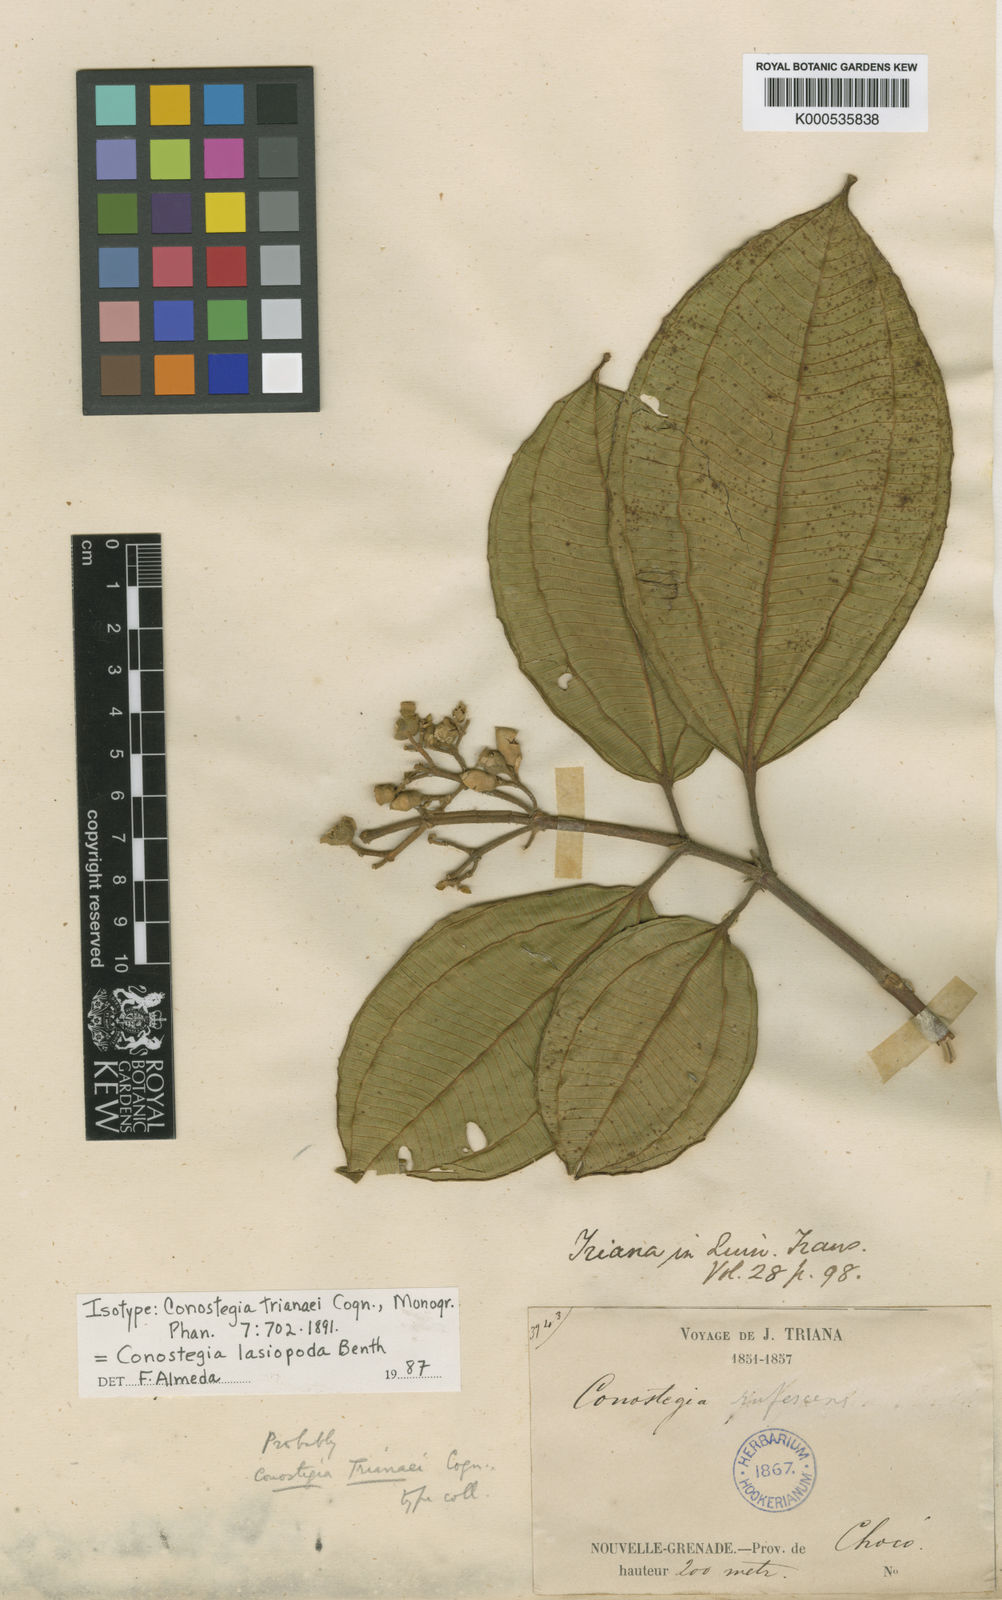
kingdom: Plantae
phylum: Tracheophyta
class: Magnoliopsida
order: Myrtales
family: Melastomataceae
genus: Miconia
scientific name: Miconia
